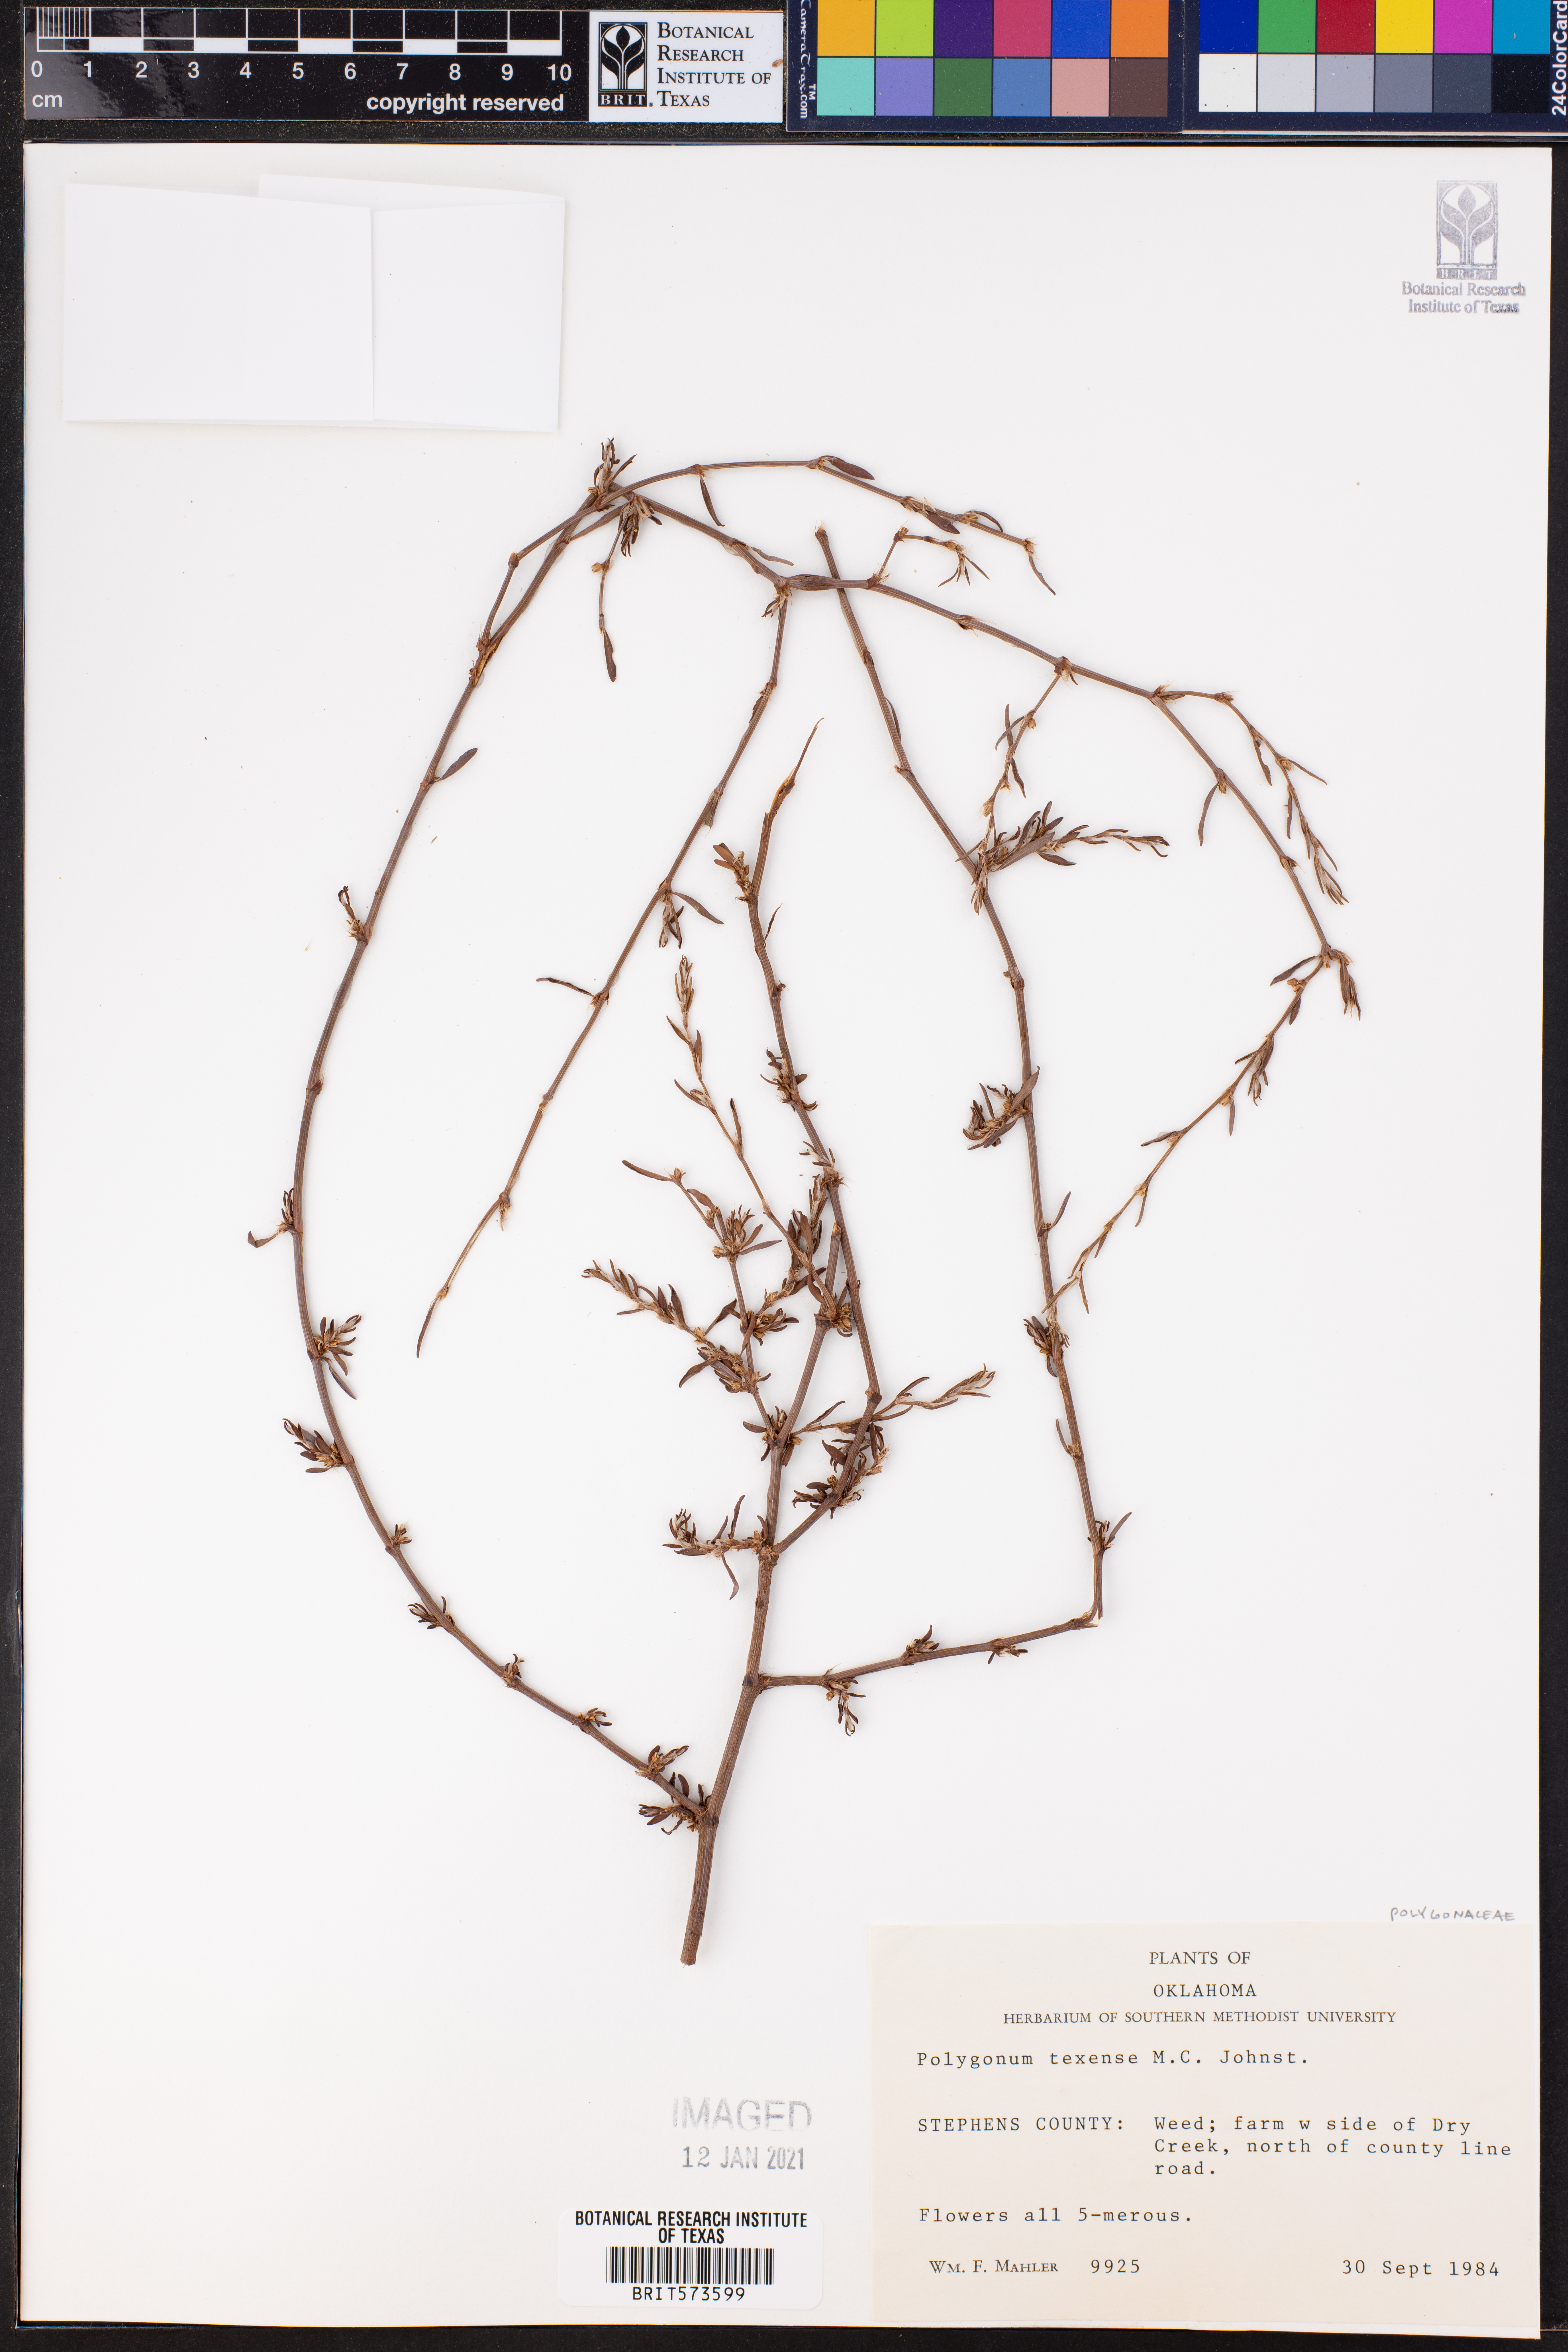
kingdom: Plantae
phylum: Tracheophyta
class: Magnoliopsida
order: Caryophyllales
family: Polygonaceae
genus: Polygonum
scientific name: Polygonum striatulum
